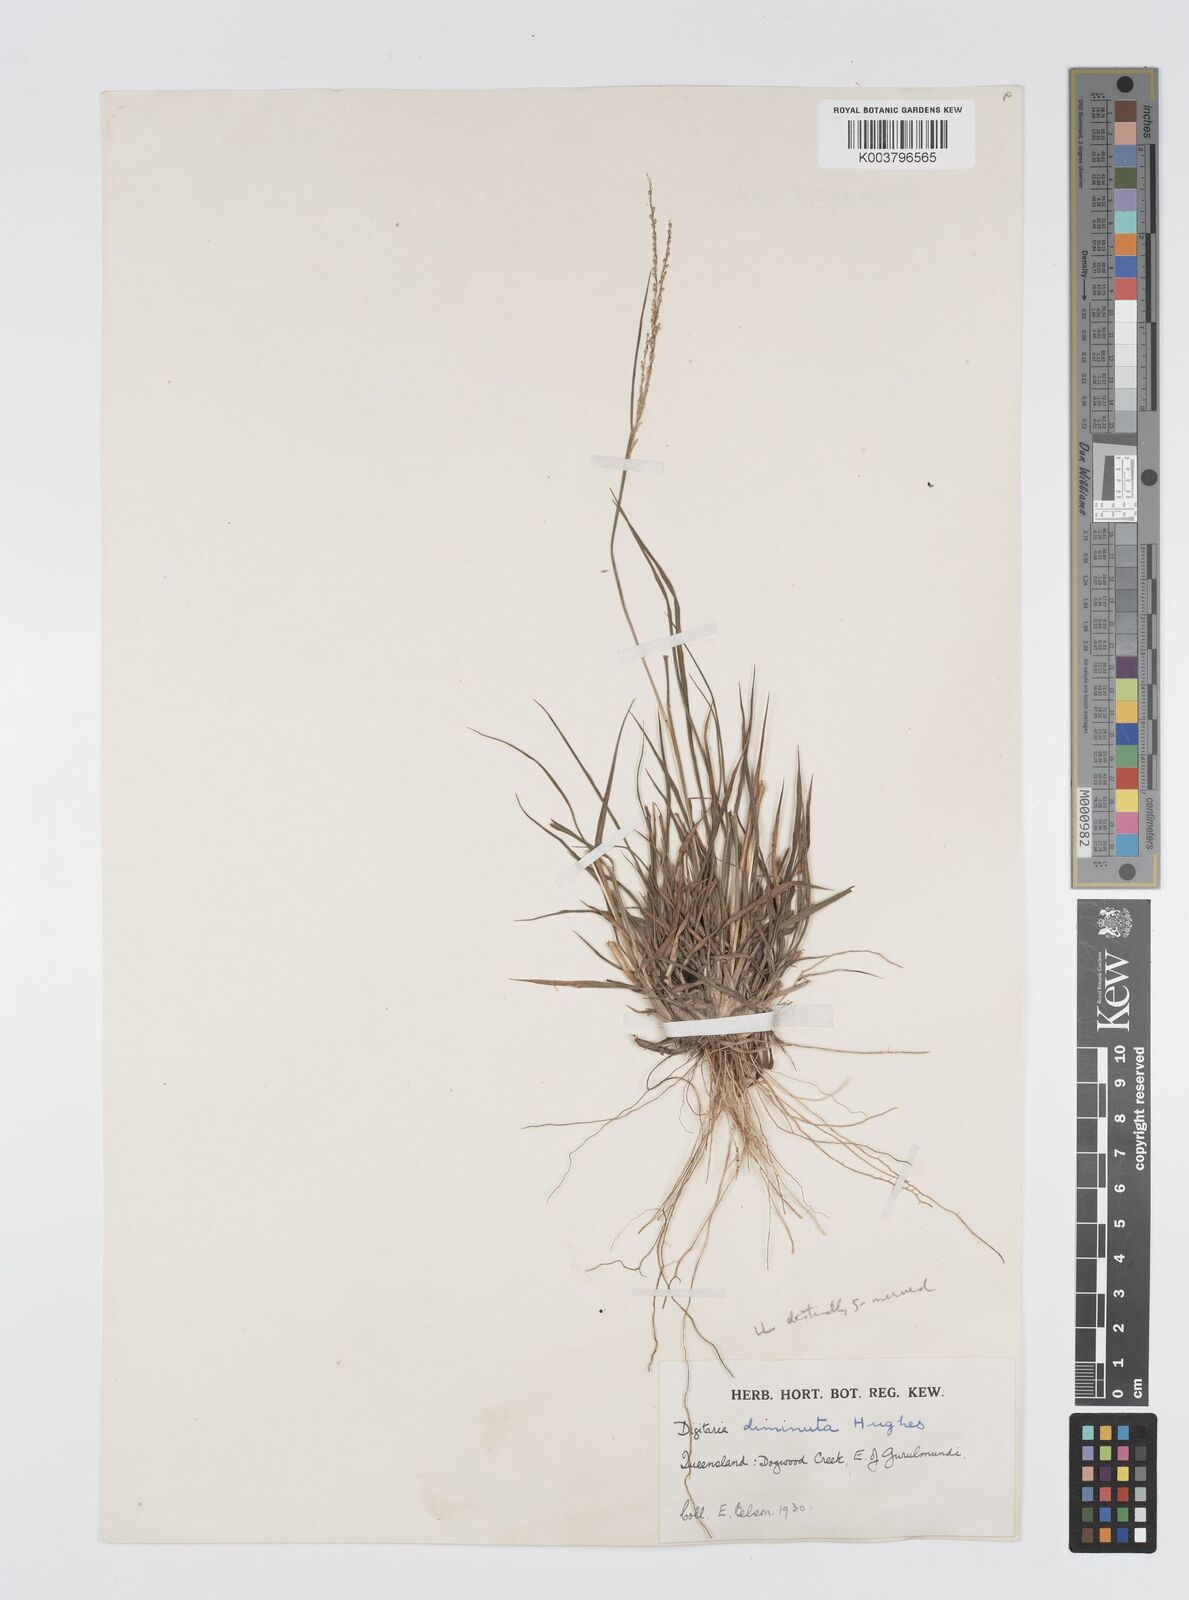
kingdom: Plantae
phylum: Tracheophyta
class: Liliopsida
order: Poales
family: Poaceae
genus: Digitaria
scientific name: Digitaria breviglumis
